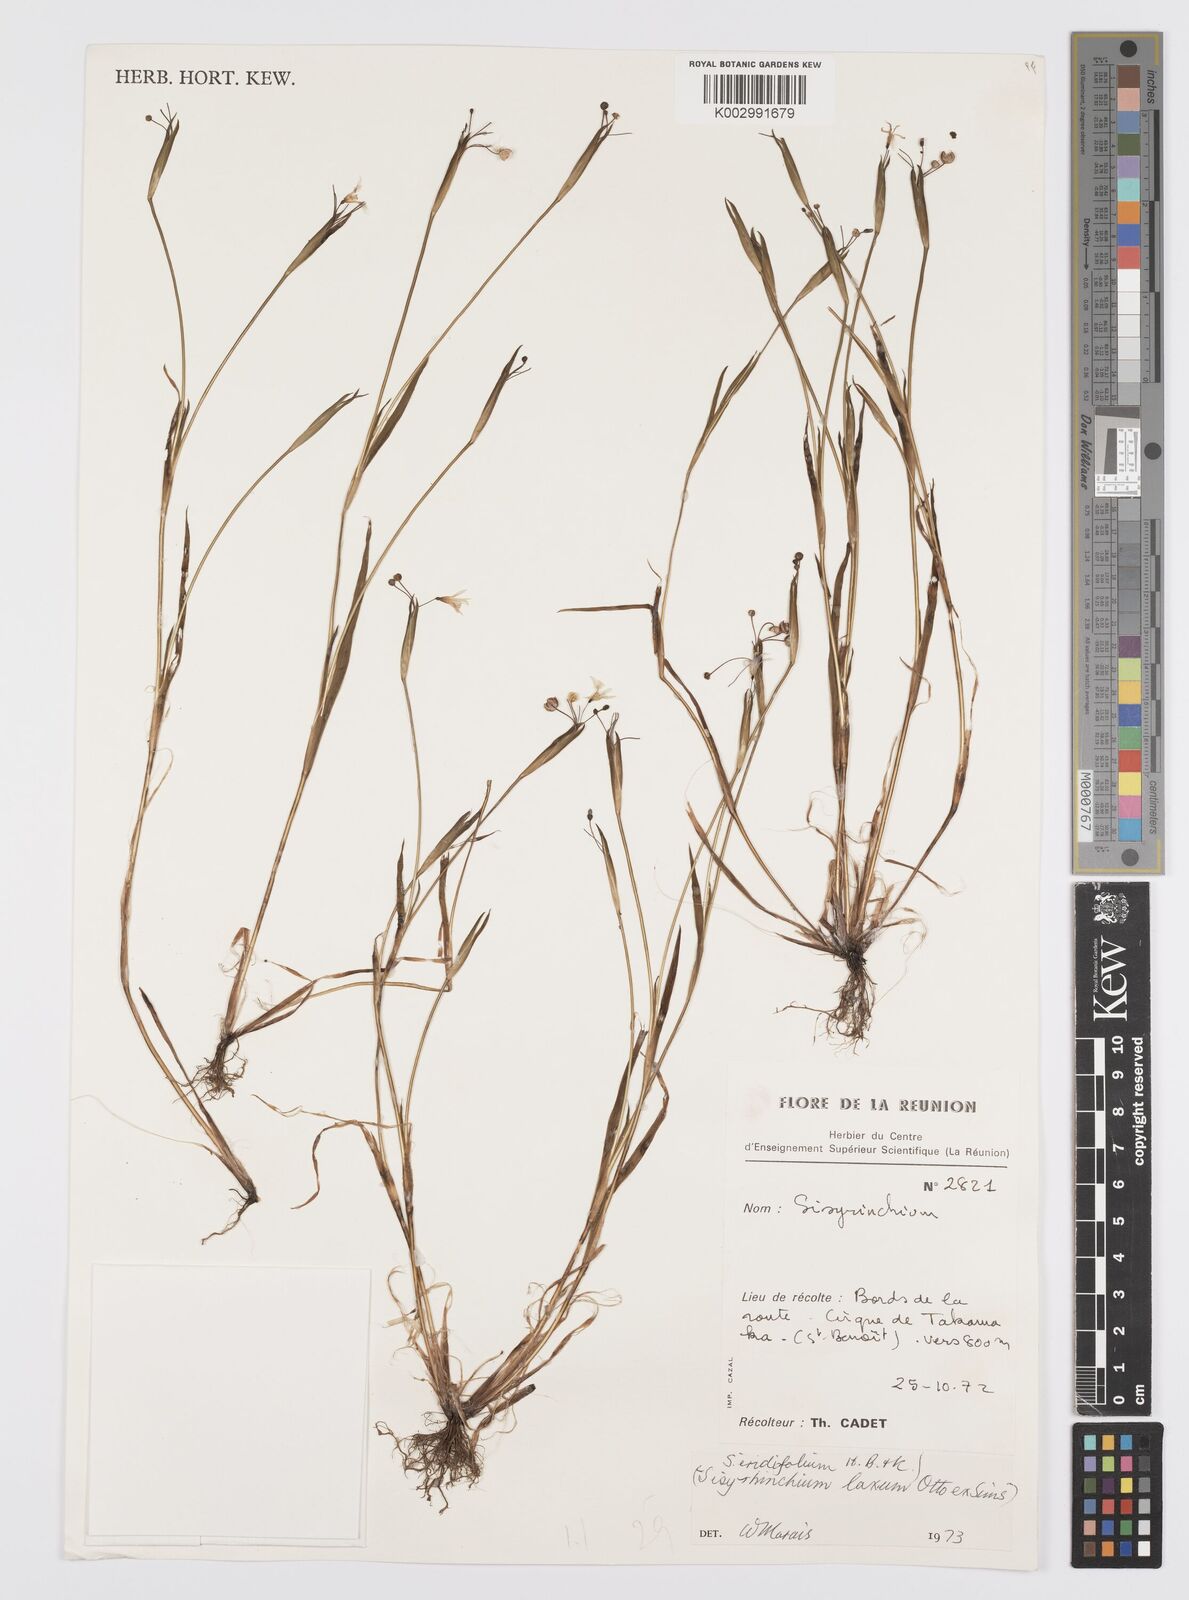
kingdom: Plantae
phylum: Tracheophyta
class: Liliopsida
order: Asparagales
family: Iridaceae
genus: Sisyrinchium
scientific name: Sisyrinchium micranthum
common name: Bermuda pigroot
